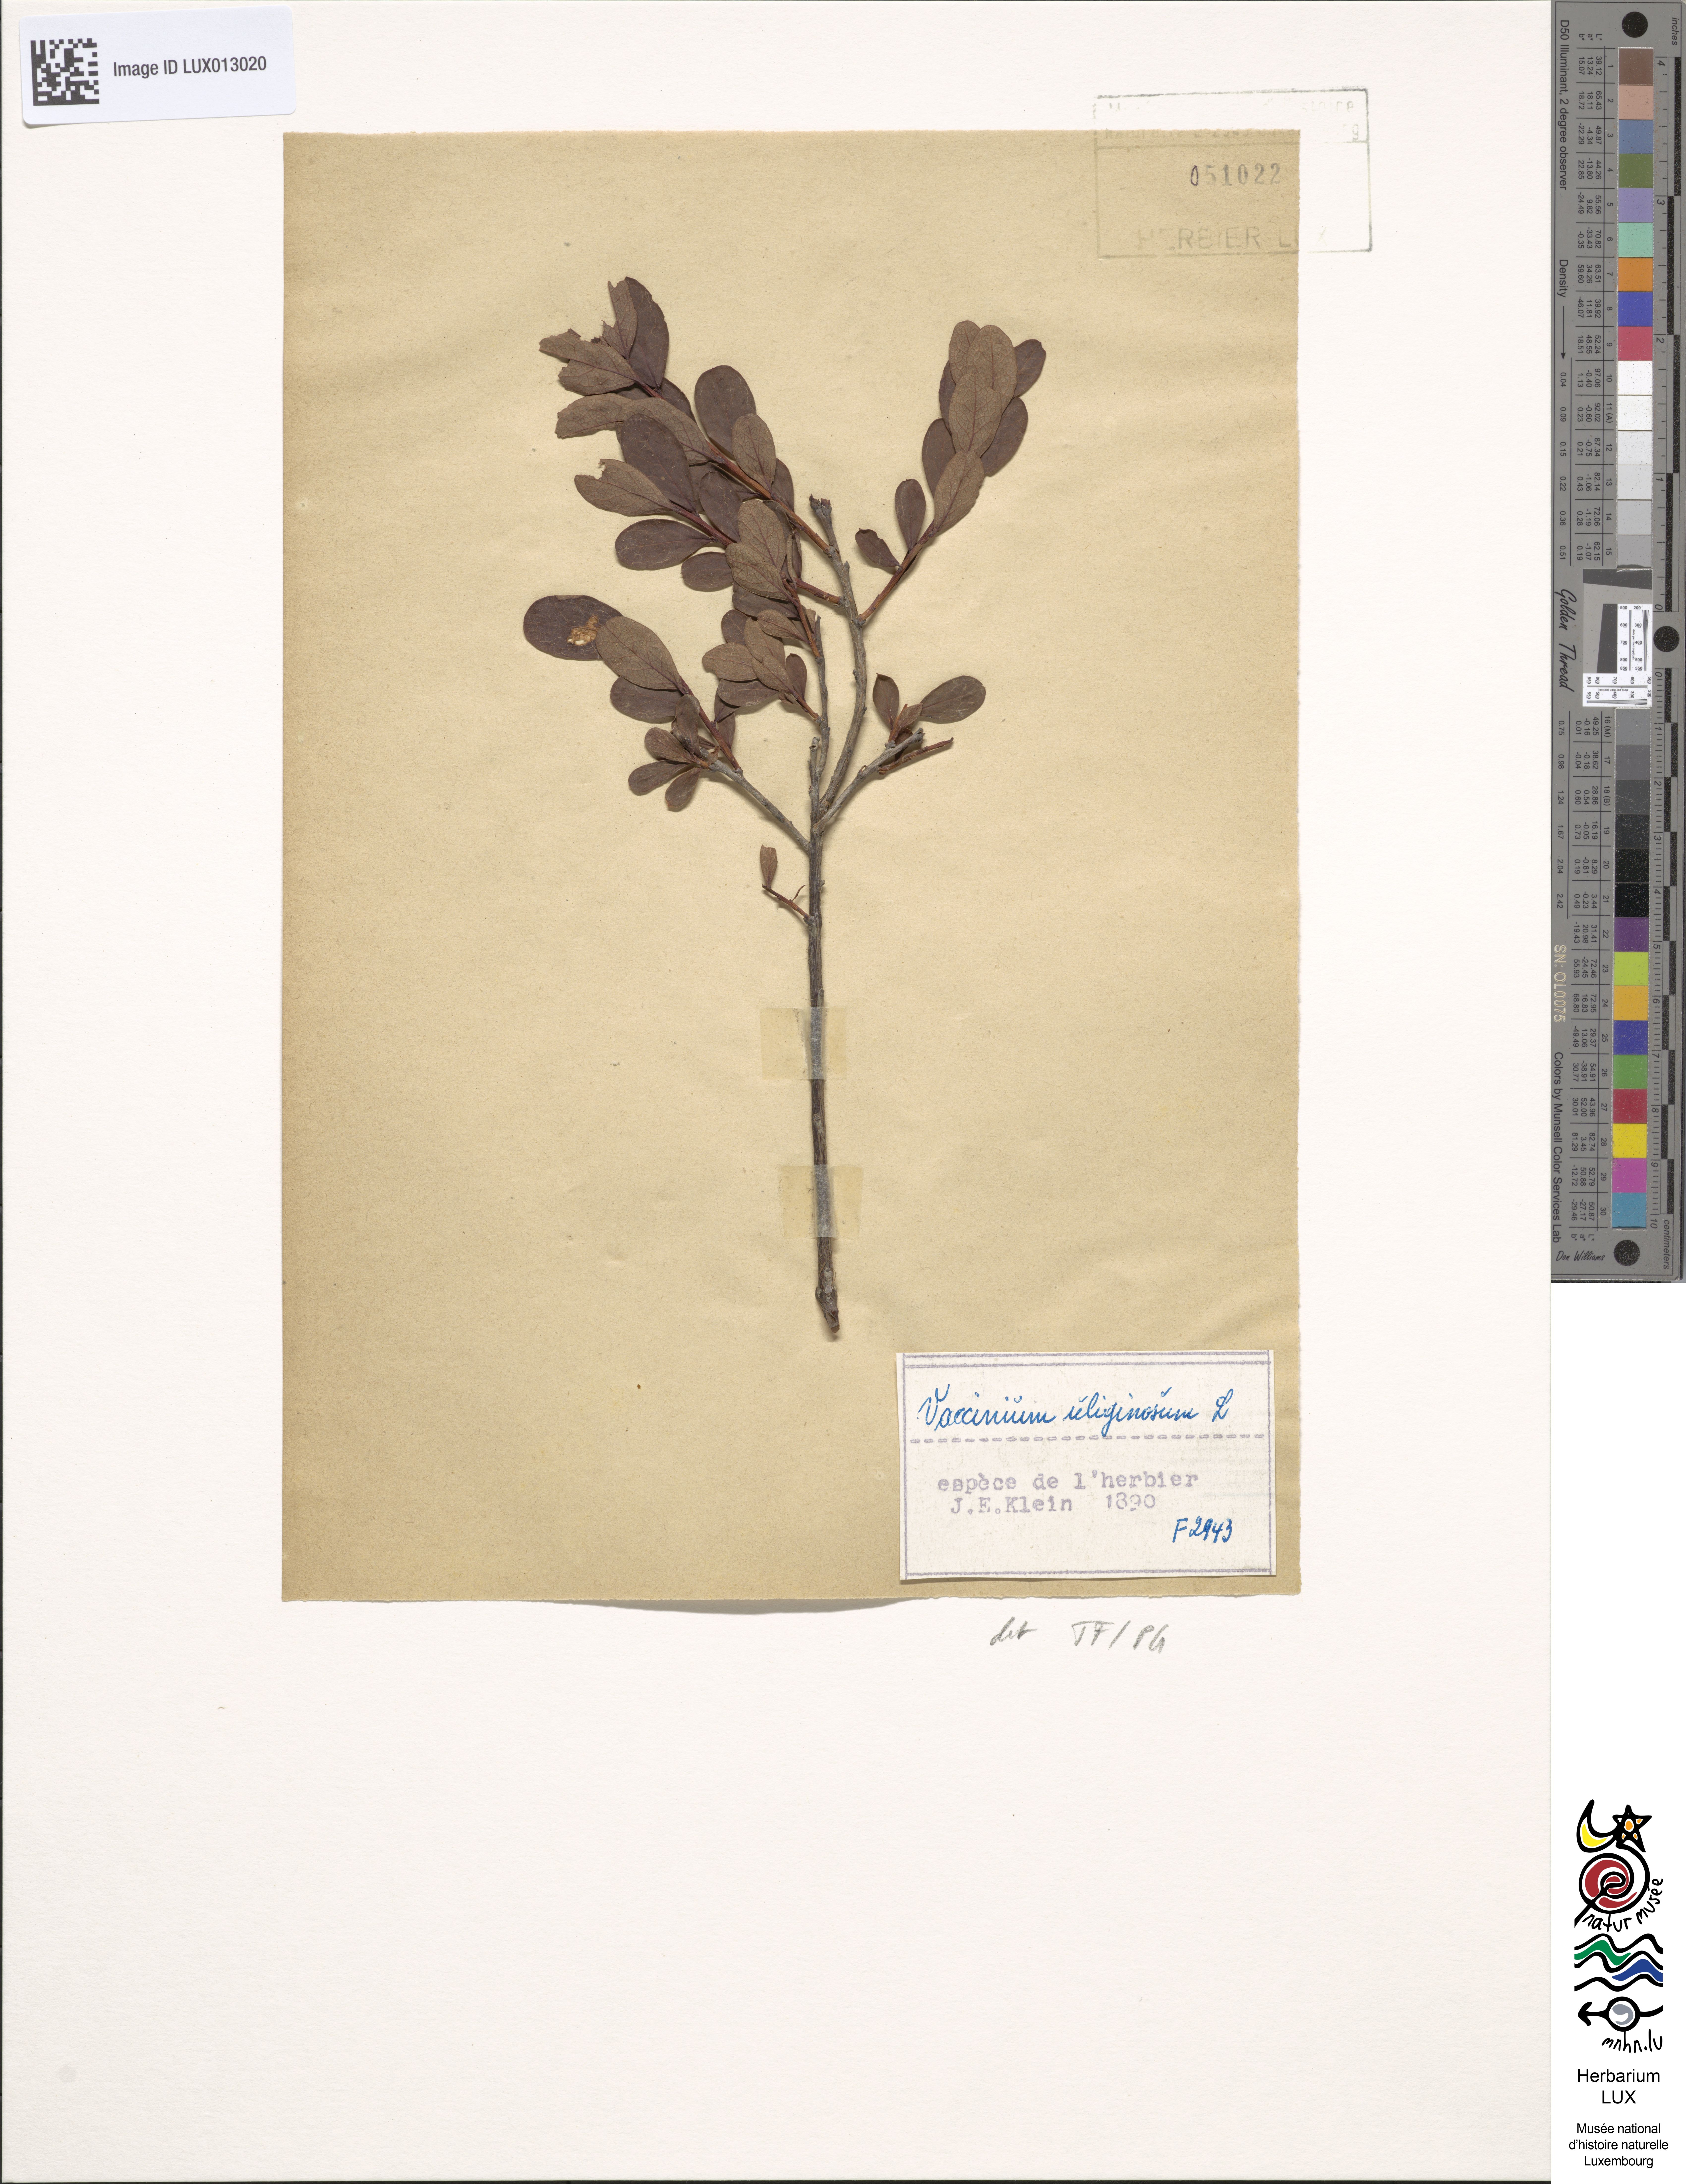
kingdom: Plantae
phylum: Tracheophyta
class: Magnoliopsida
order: Ericales
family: Ericaceae
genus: Vaccinium
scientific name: Vaccinium uliginosum
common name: Bog bilberry
